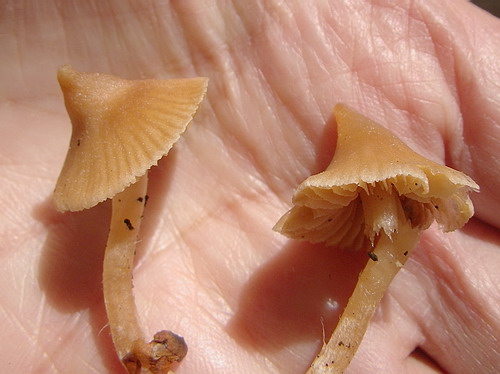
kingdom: Fungi
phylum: Basidiomycota
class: Agaricomycetes
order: Agaricales
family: Cortinariaceae
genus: Cortinarius
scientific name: Cortinarius acutus
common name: spids slørhat
